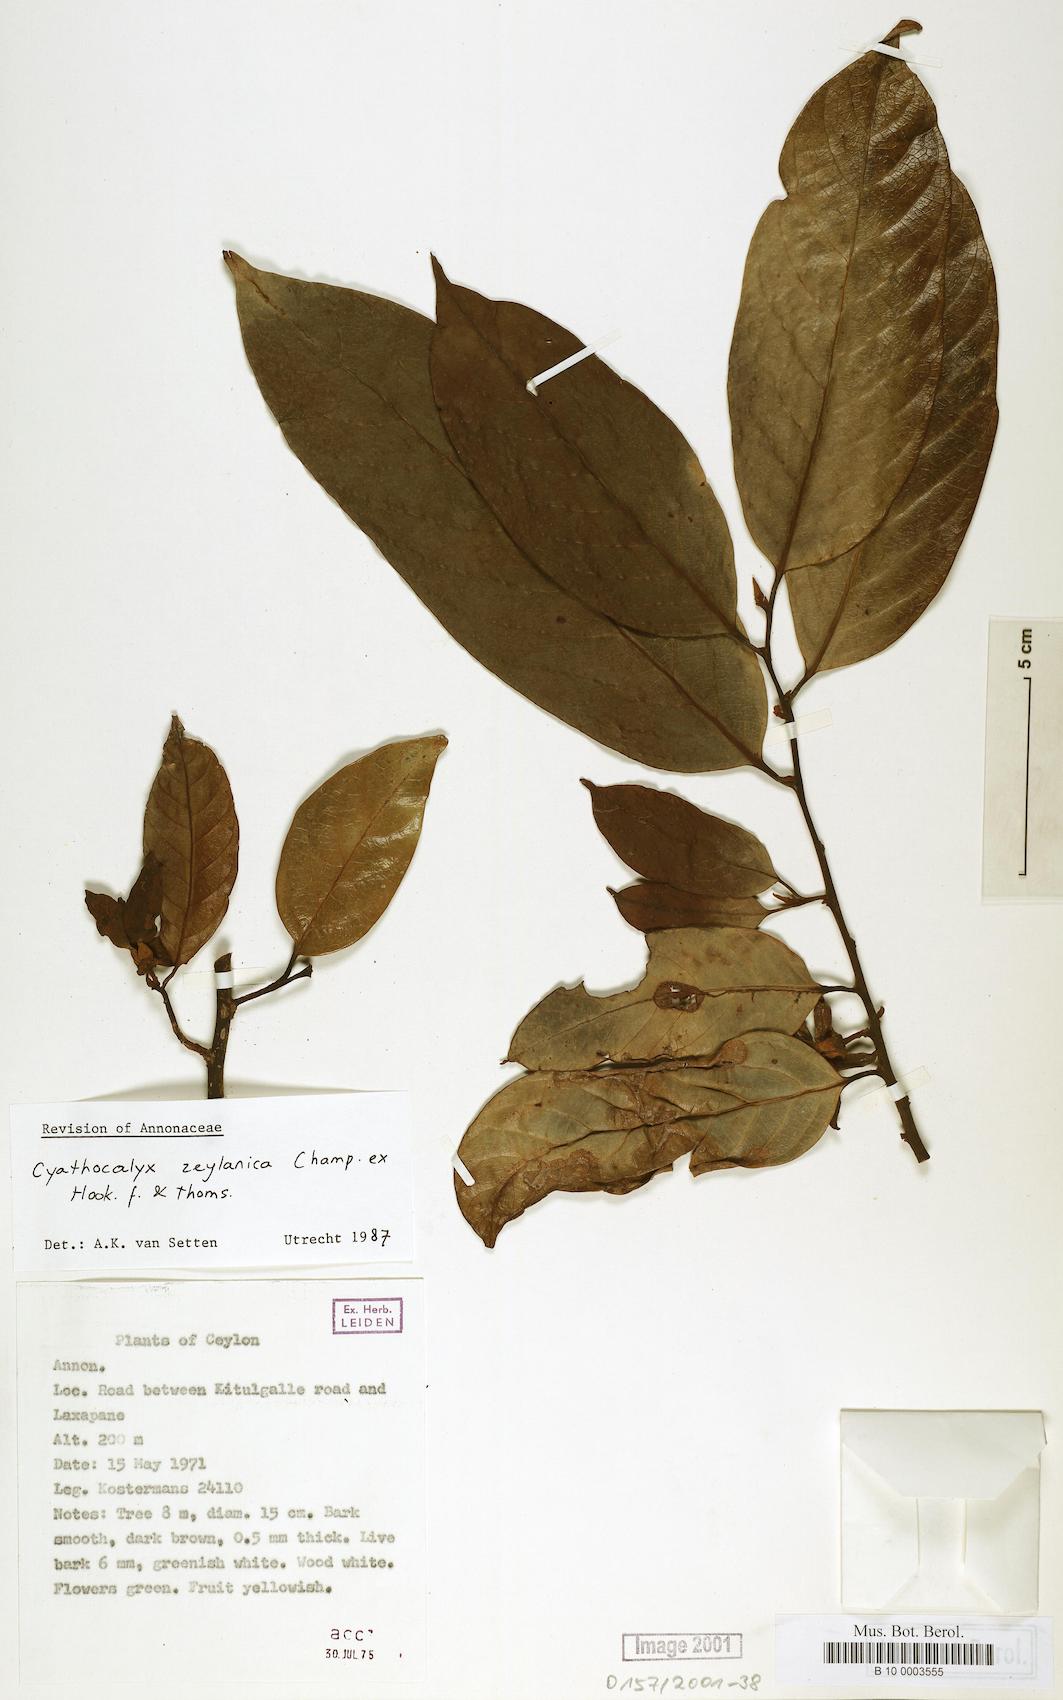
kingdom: Plantae
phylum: Tracheophyta
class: Magnoliopsida
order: Magnoliales
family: Annonaceae
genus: Cyathocalyx
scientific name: Cyathocalyx zeylanicus
